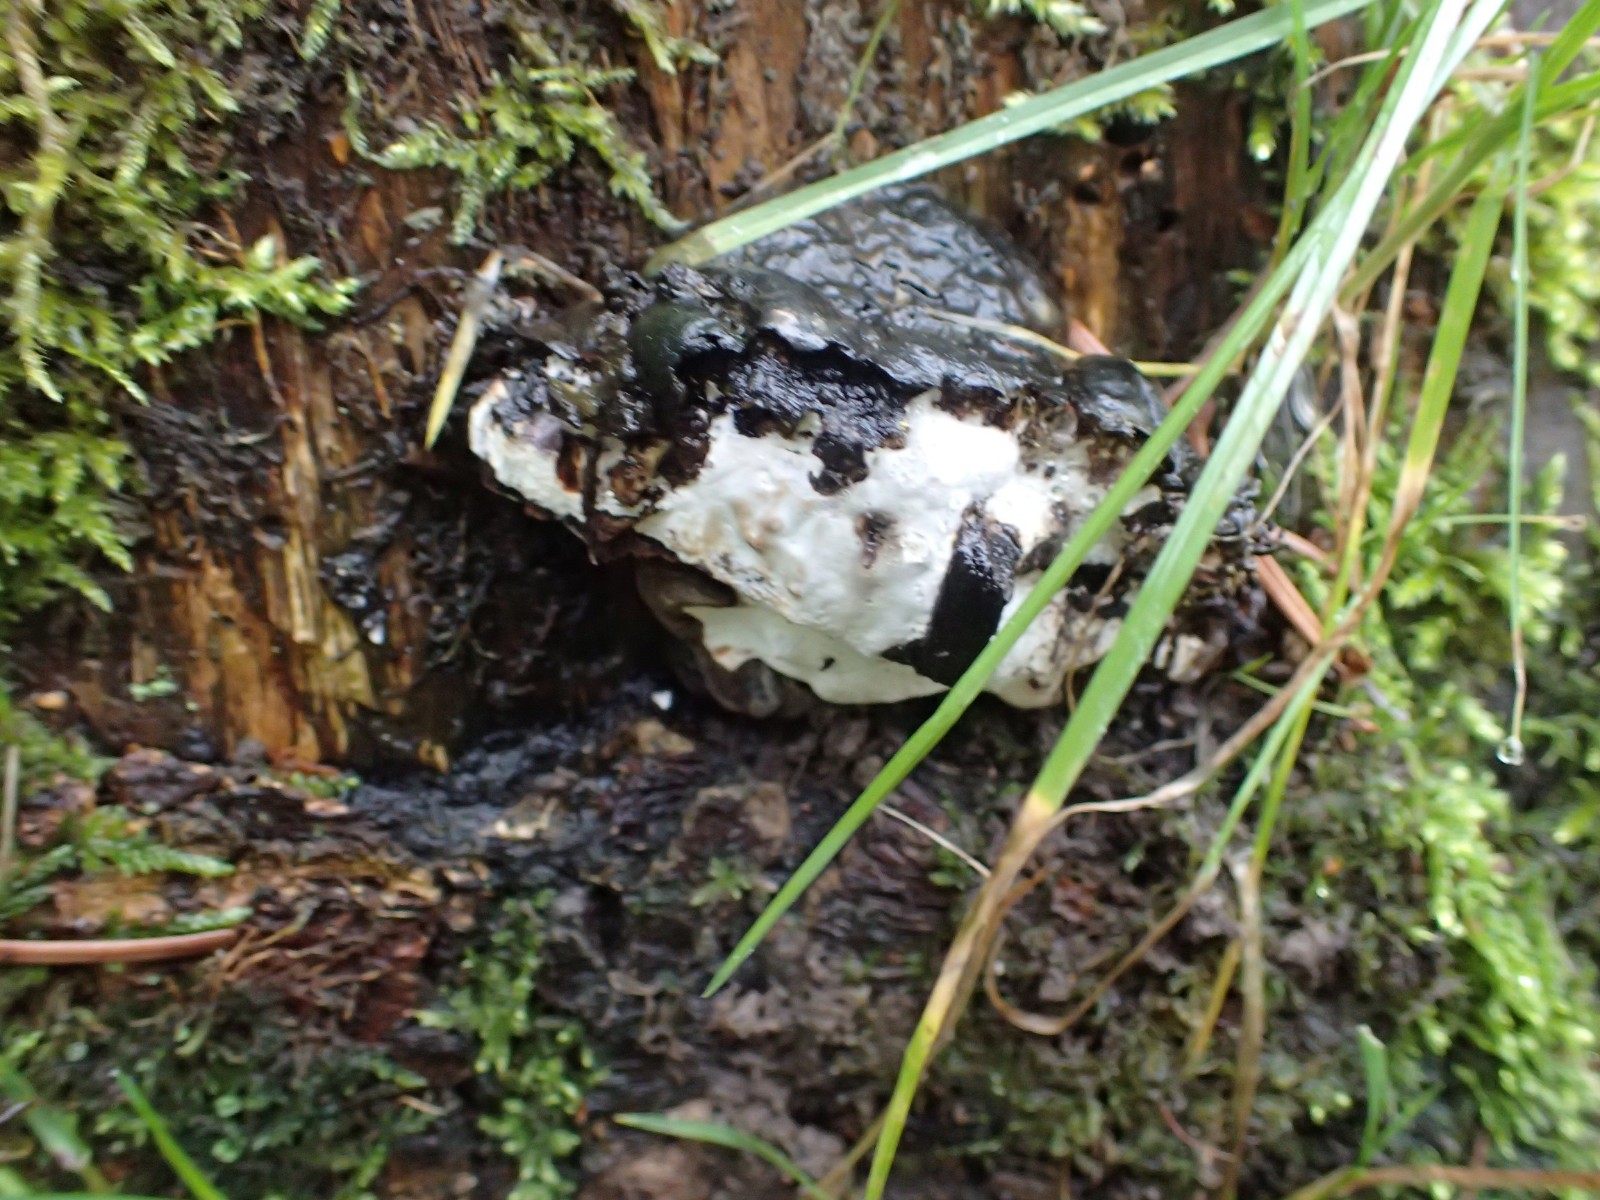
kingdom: Fungi
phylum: Basidiomycota
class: Agaricomycetes
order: Russulales
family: Bondarzewiaceae
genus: Heterobasidion
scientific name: Heterobasidion annosum
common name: almindelig rodfordærver
